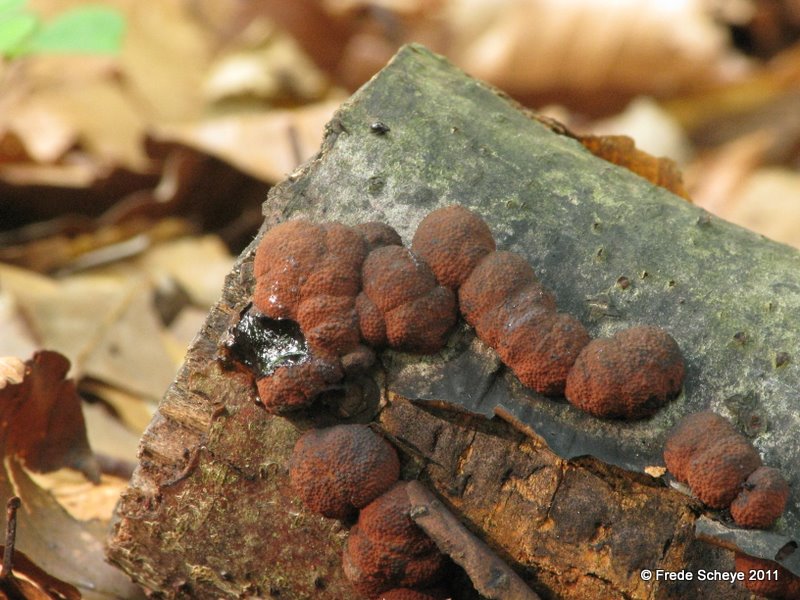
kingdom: Fungi
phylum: Ascomycota
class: Sordariomycetes
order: Xylariales
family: Hypoxylaceae
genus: Hypoxylon
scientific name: Hypoxylon fragiforme
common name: kuljordbær
